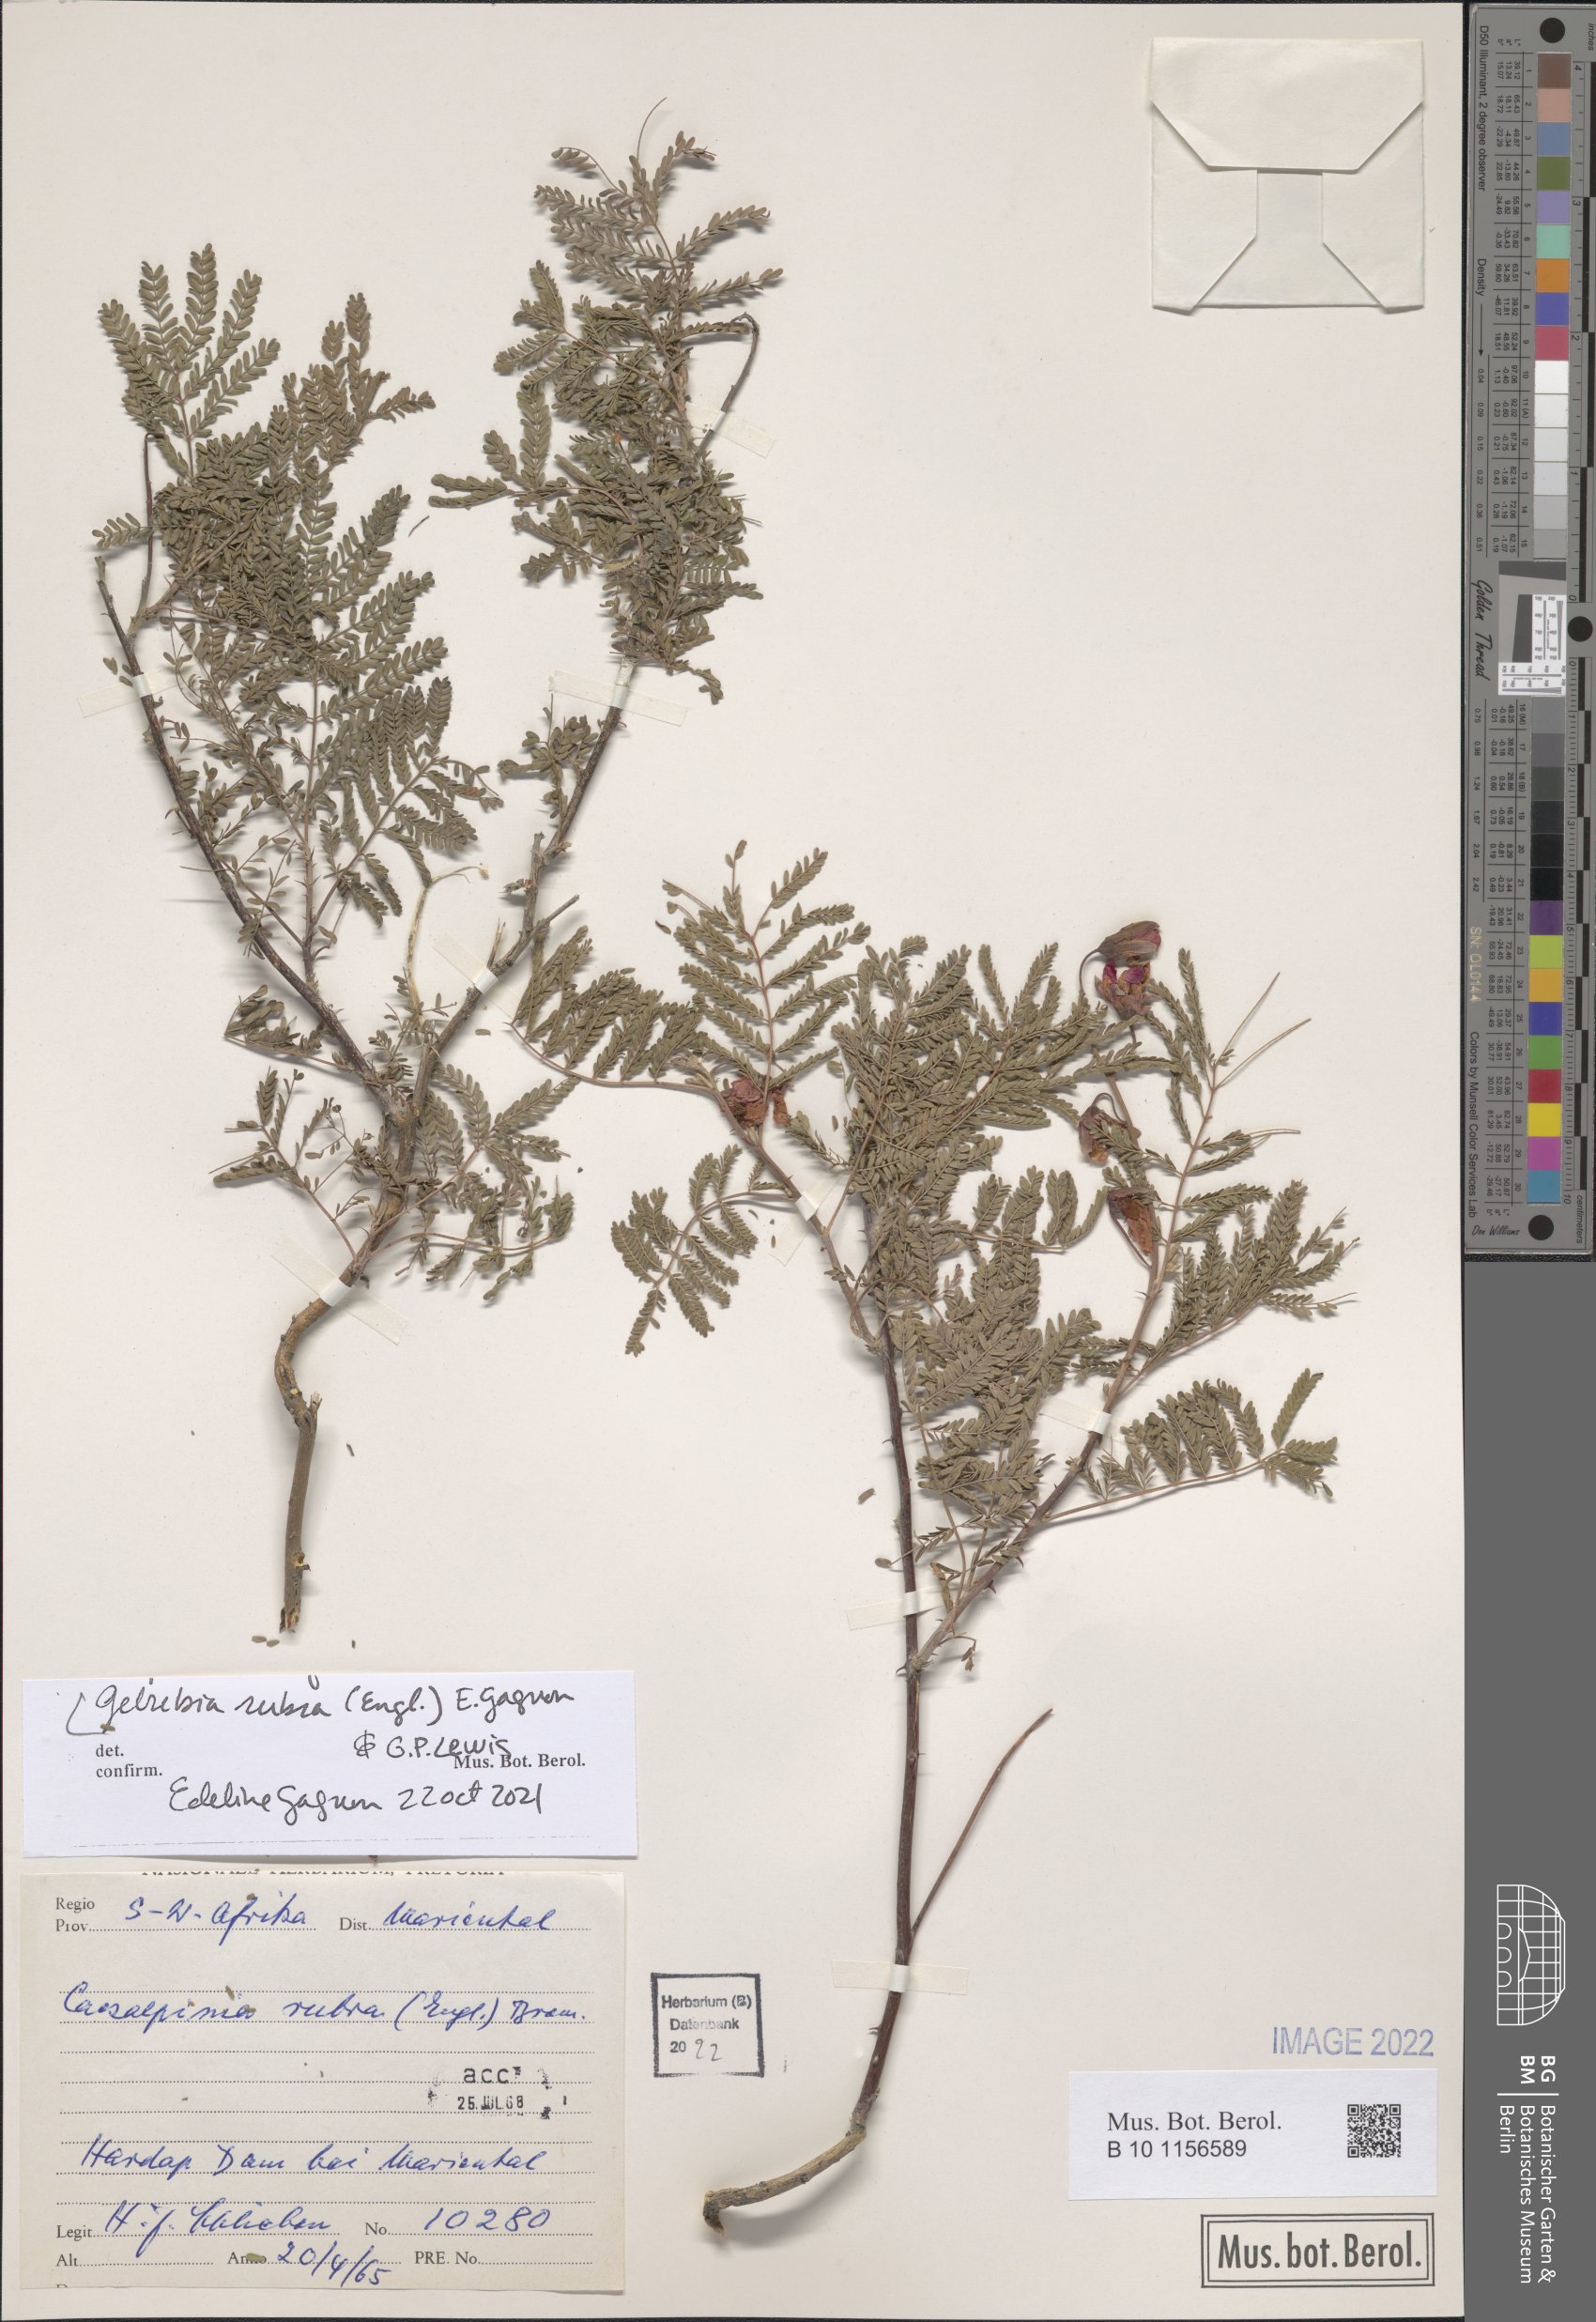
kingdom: Plantae
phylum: Tracheophyta
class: Magnoliopsida
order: Fabales
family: Fabaceae
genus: Gelrebia
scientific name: Gelrebia rubra
